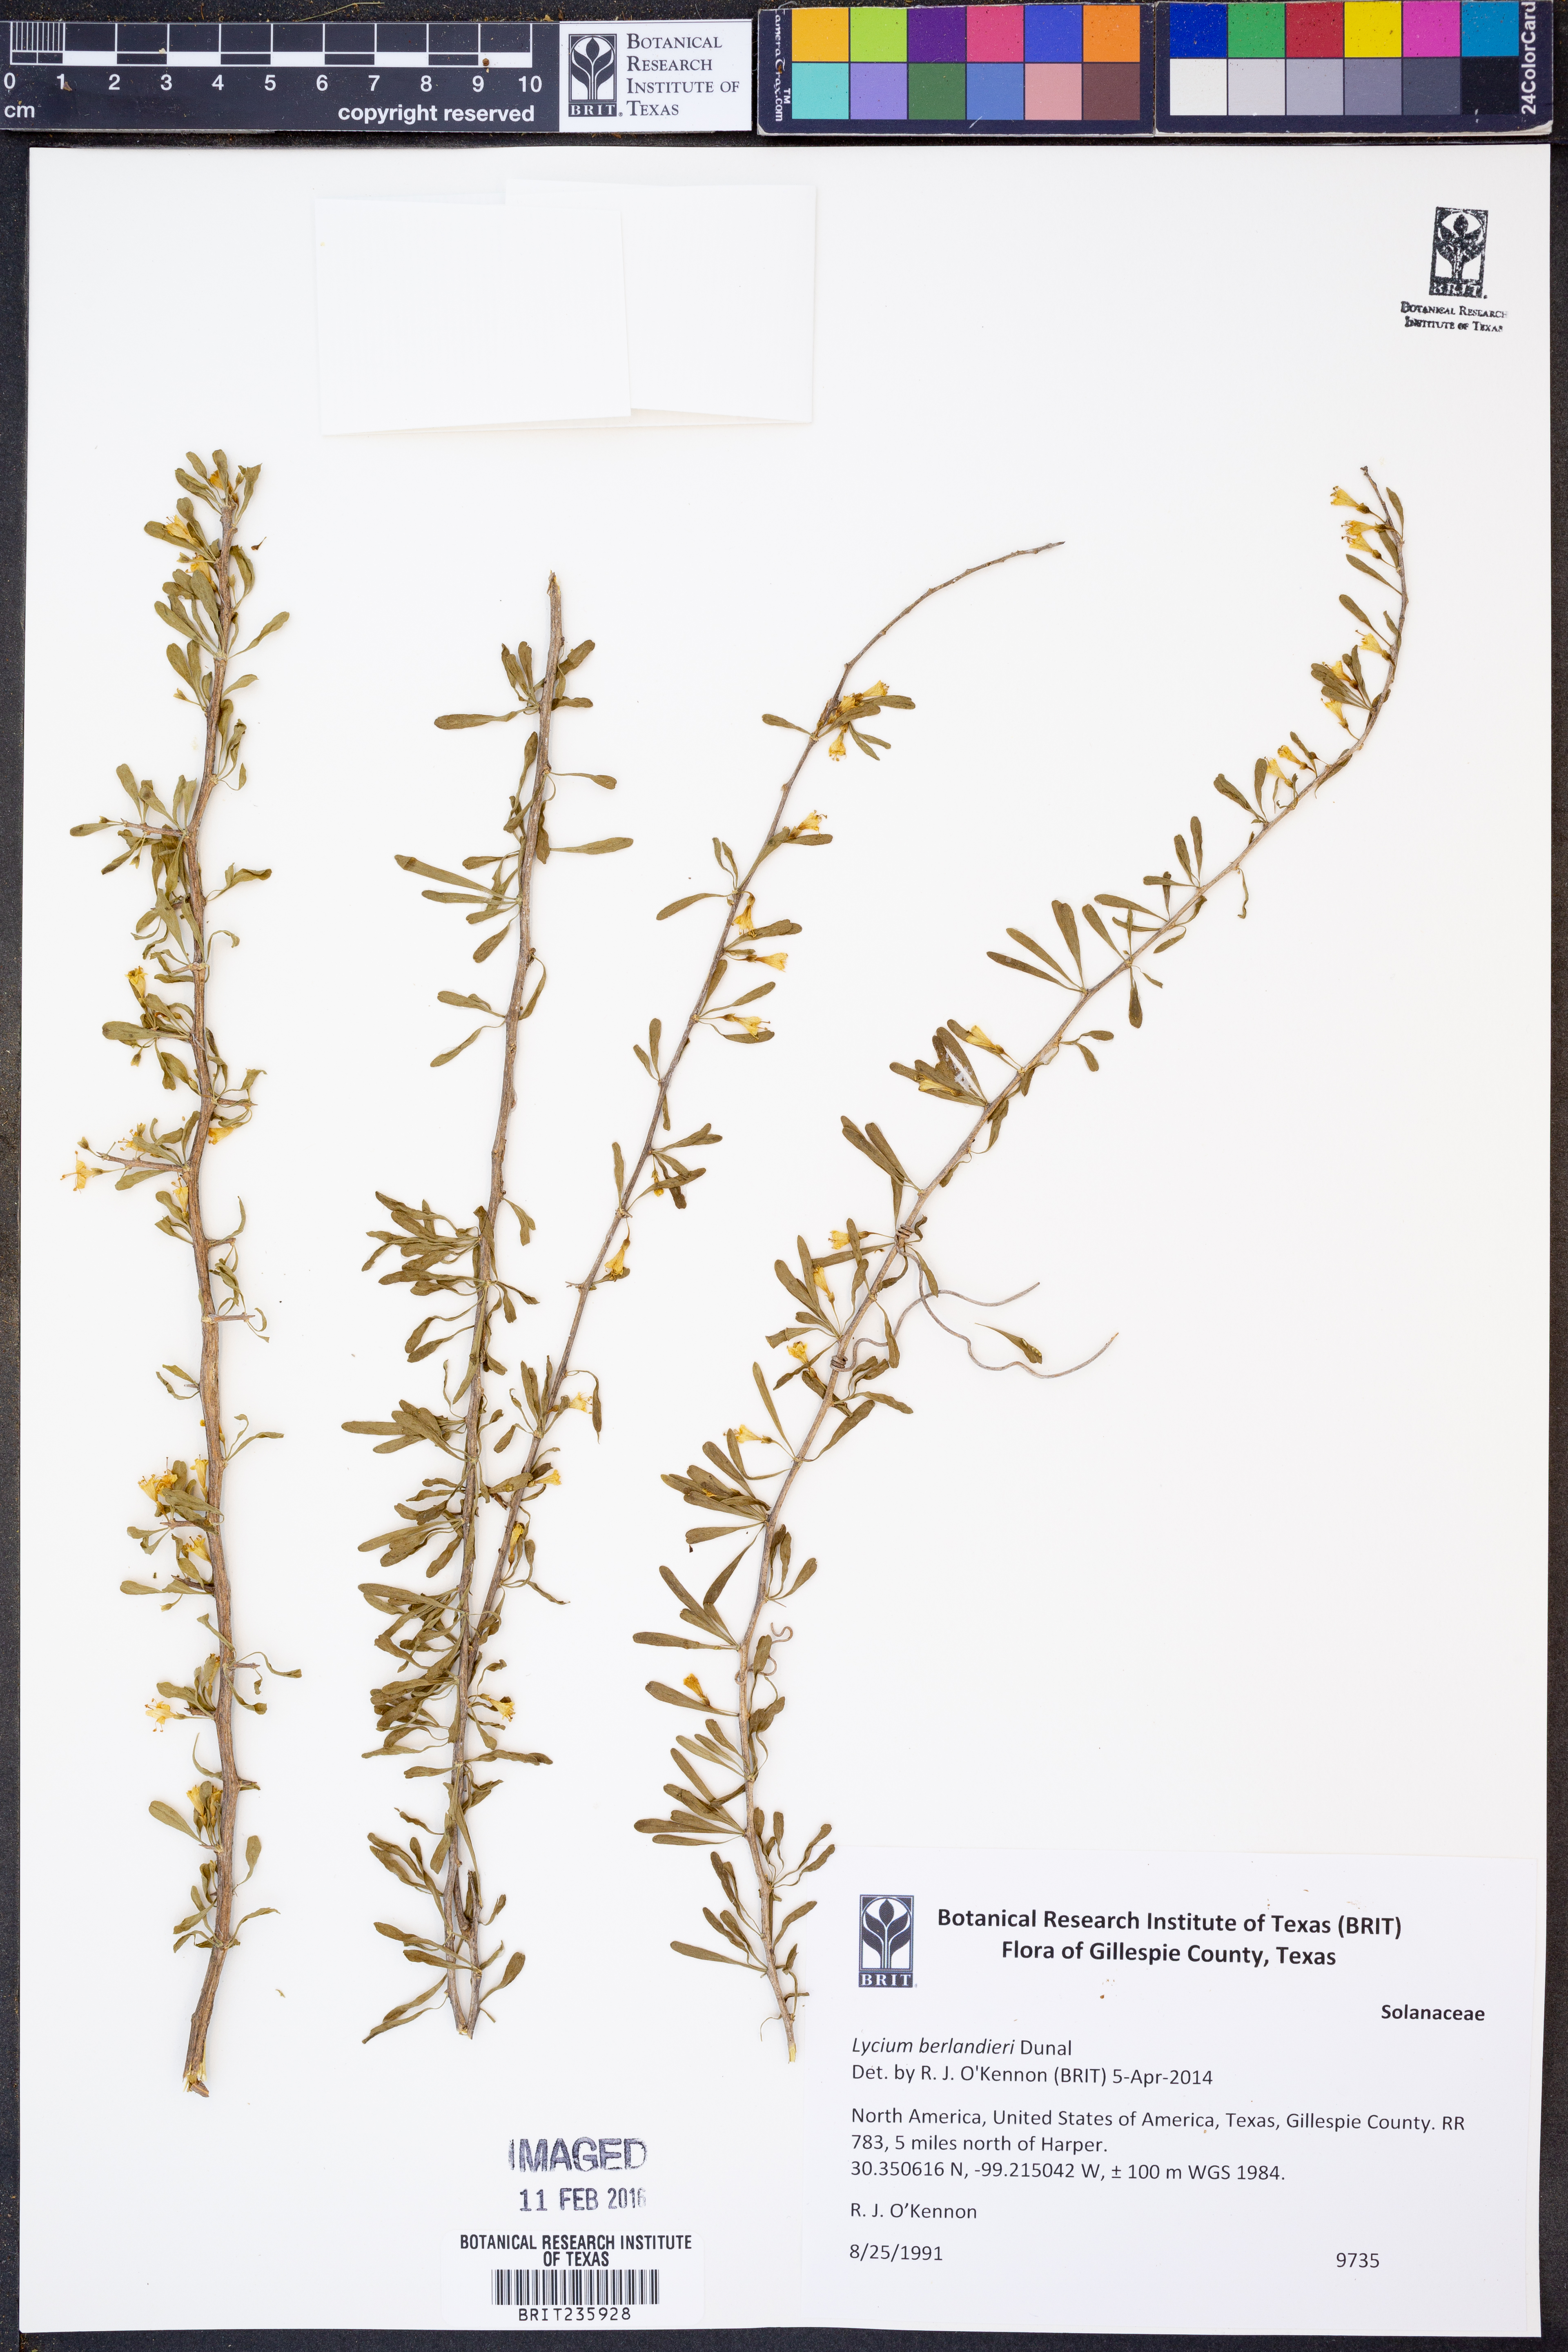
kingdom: Plantae
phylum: Tracheophyta
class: Magnoliopsida
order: Solanales
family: Solanaceae
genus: Lycium
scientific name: Lycium berlandieri
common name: Berlandier wolfberry
